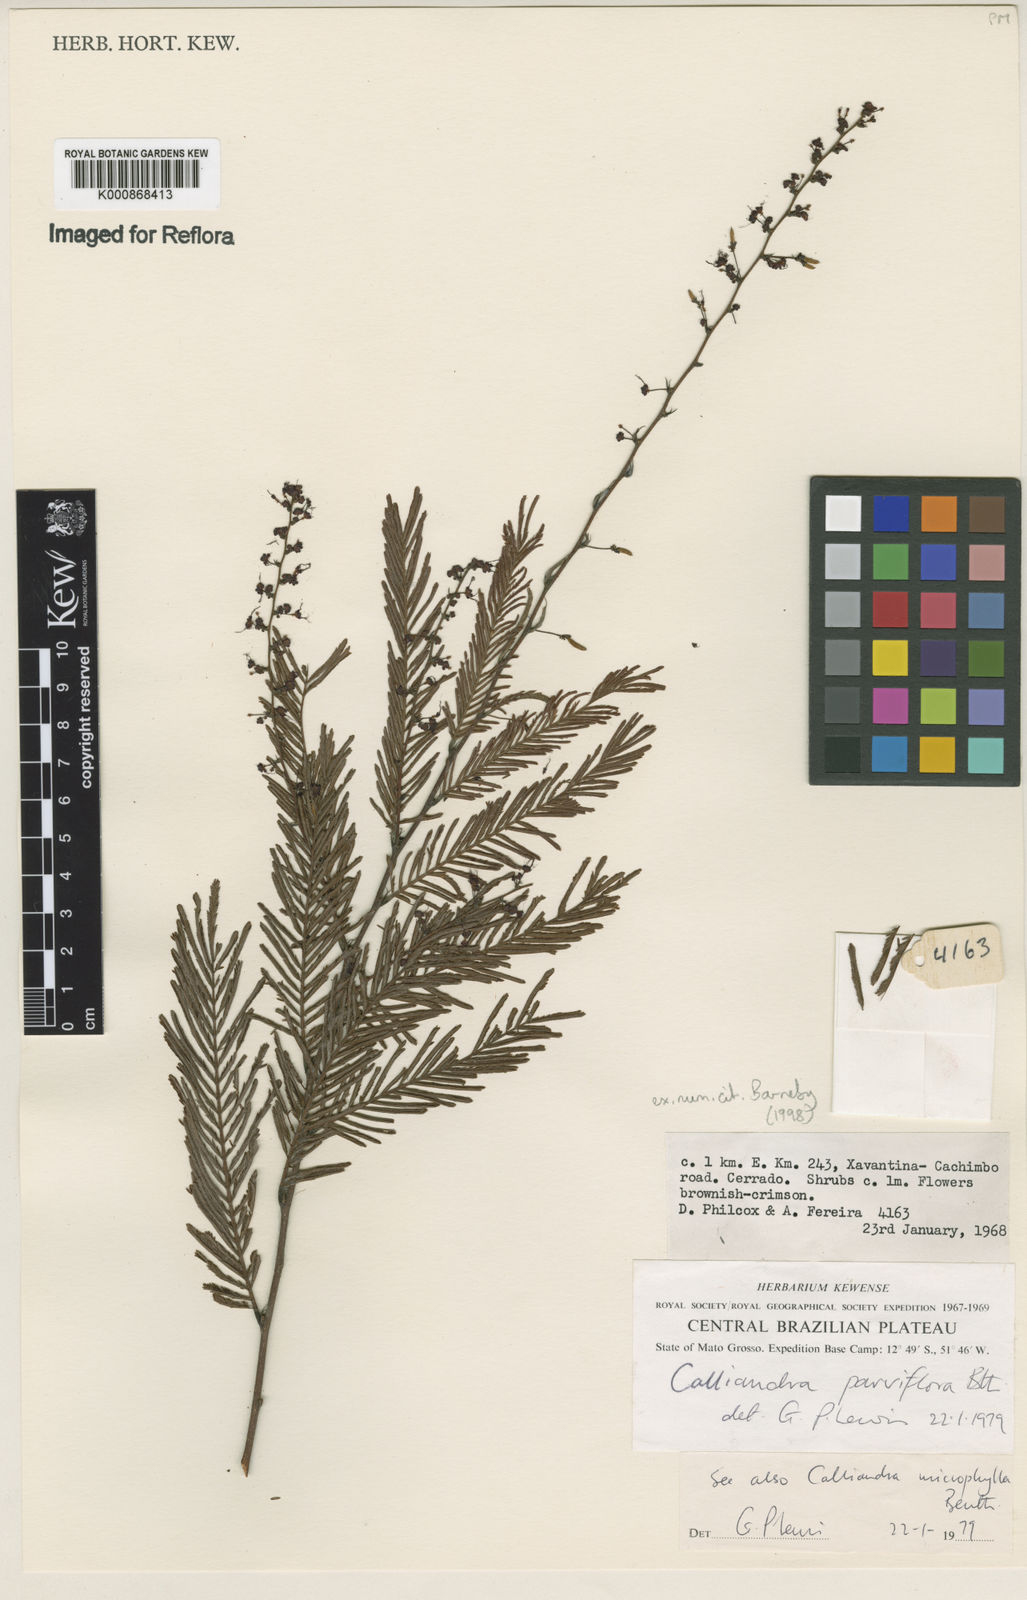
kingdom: Plantae
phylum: Tracheophyta
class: Magnoliopsida
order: Fabales
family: Fabaceae
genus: Calliandra
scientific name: Calliandra parviflora
